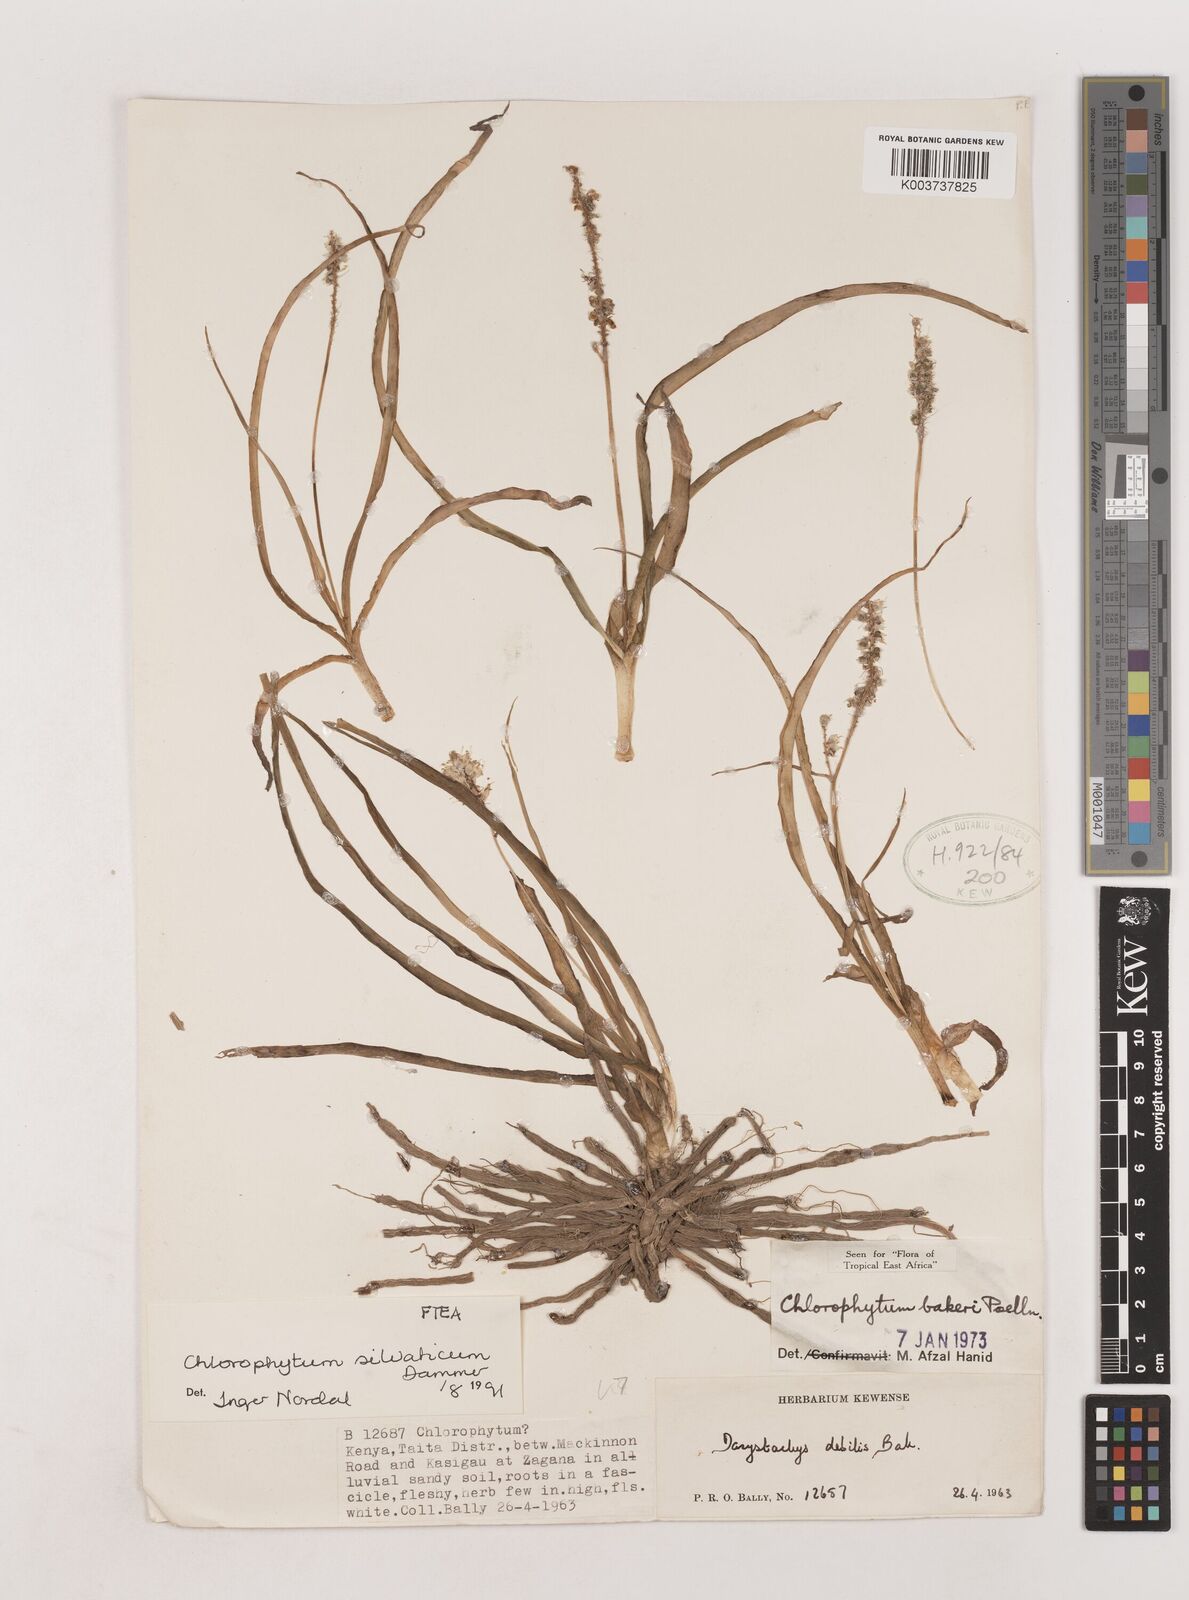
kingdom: Plantae
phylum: Tracheophyta
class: Liliopsida
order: Asparagales
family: Asparagaceae
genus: Chlorophytum
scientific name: Chlorophytum africanum
